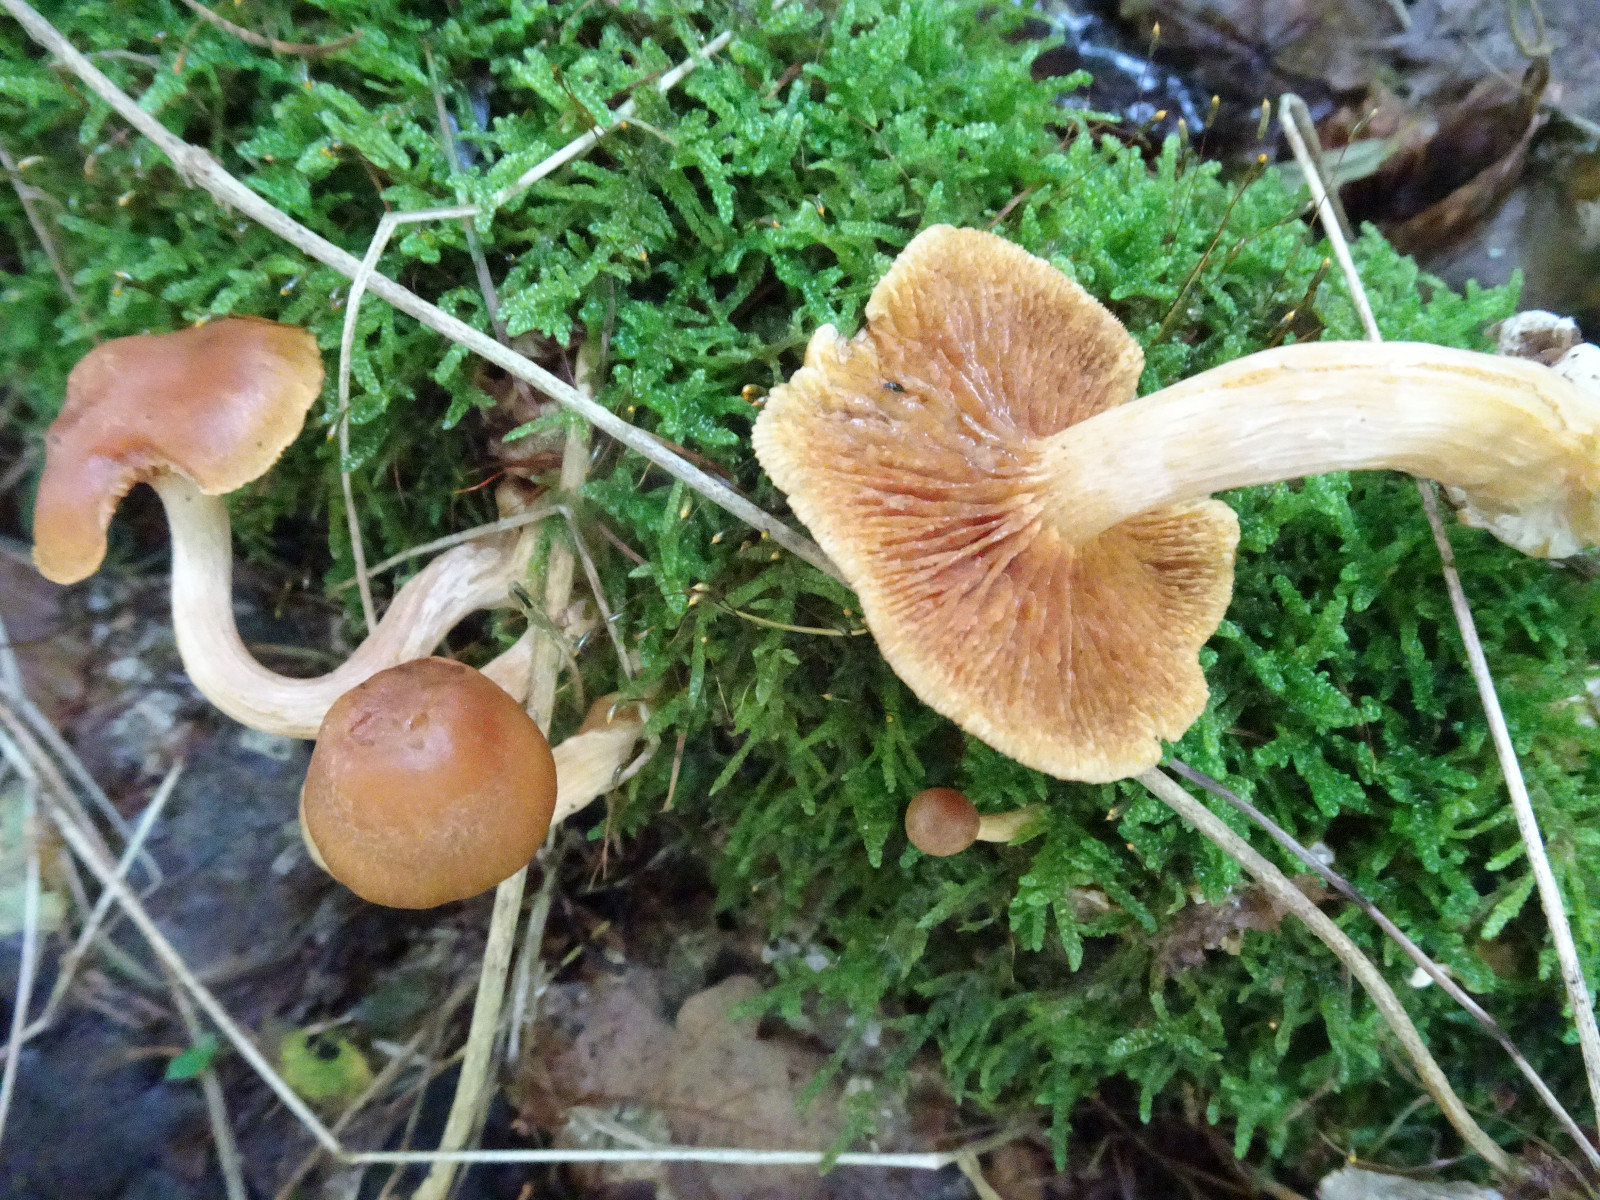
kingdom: Fungi
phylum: Basidiomycota
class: Agaricomycetes
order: Agaricales
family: Hymenogastraceae
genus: Gymnopilus
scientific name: Gymnopilus penetrans
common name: plettet flammehat
